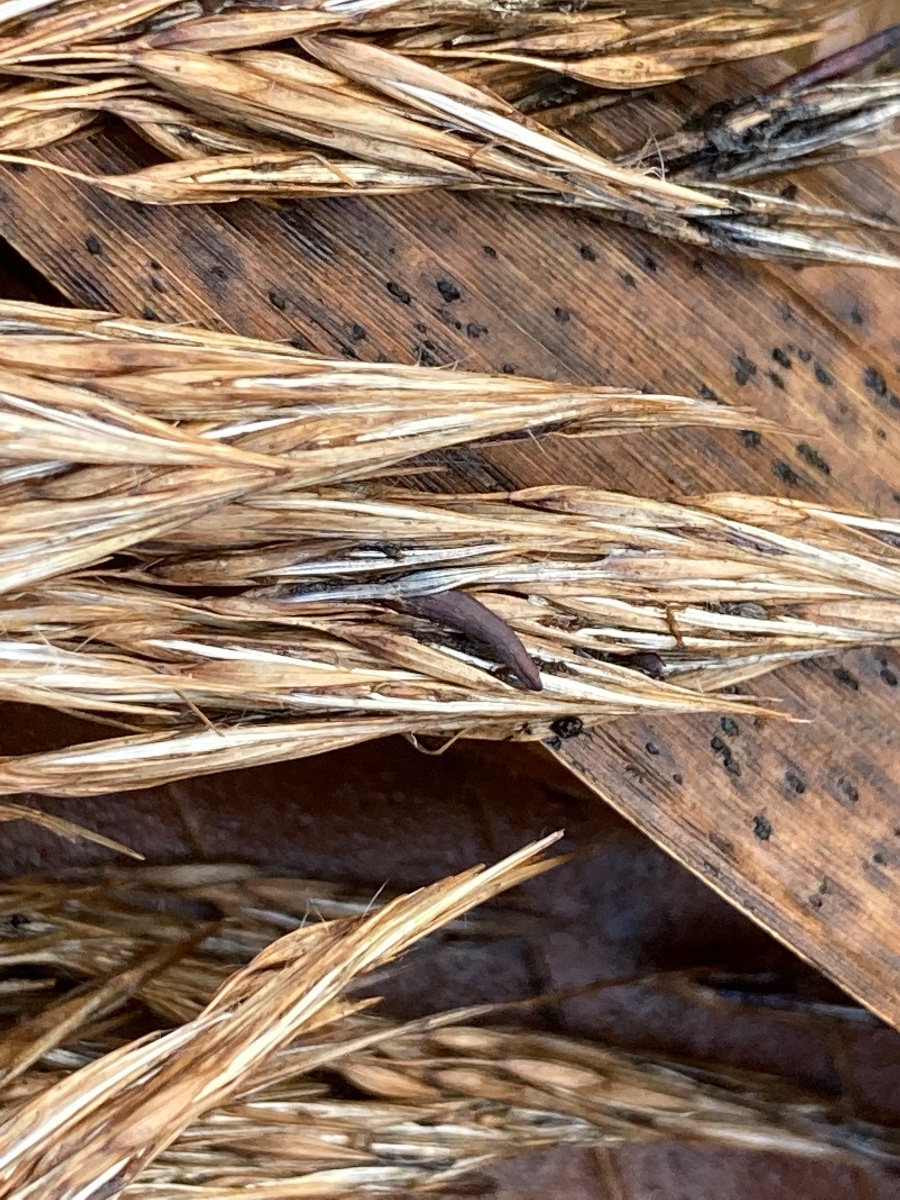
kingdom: Fungi
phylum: Ascomycota
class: Sordariomycetes
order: Hypocreales
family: Clavicipitaceae
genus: Claviceps
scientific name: Claviceps arundinis
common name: tagrør-meldrøjer
